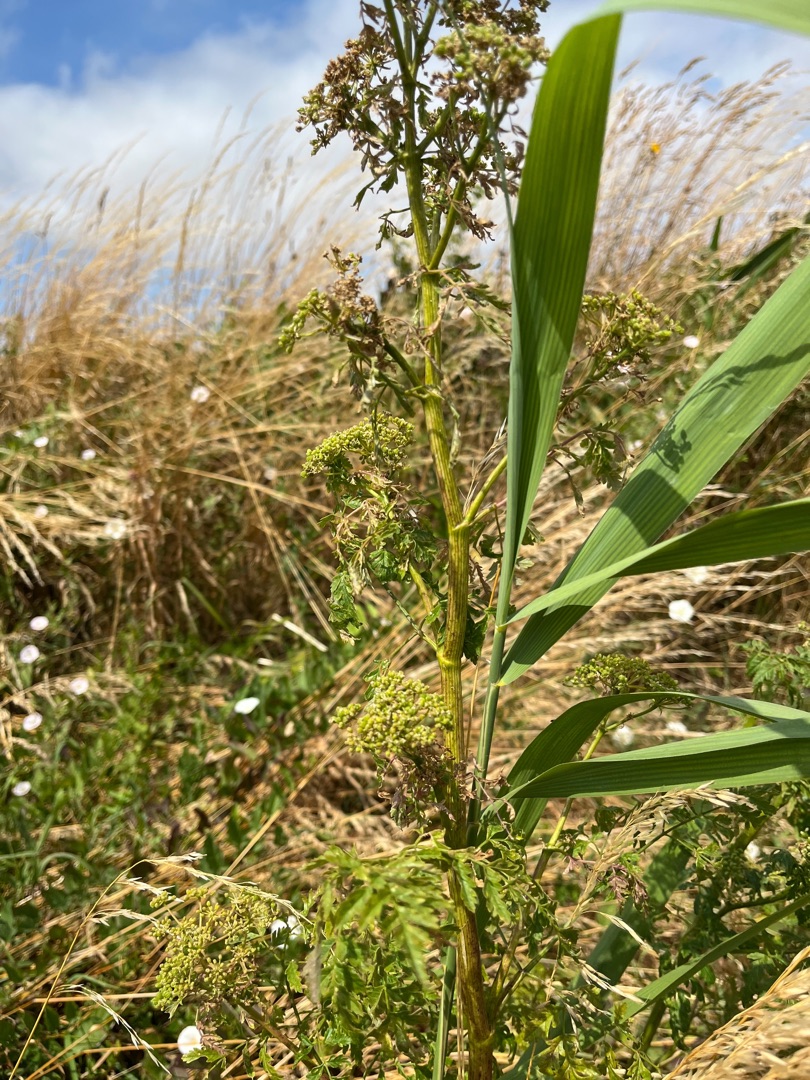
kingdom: Plantae
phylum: Tracheophyta
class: Magnoliopsida
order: Apiales
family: Apiaceae
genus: Conium
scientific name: Conium maculatum
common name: Skarntyde
